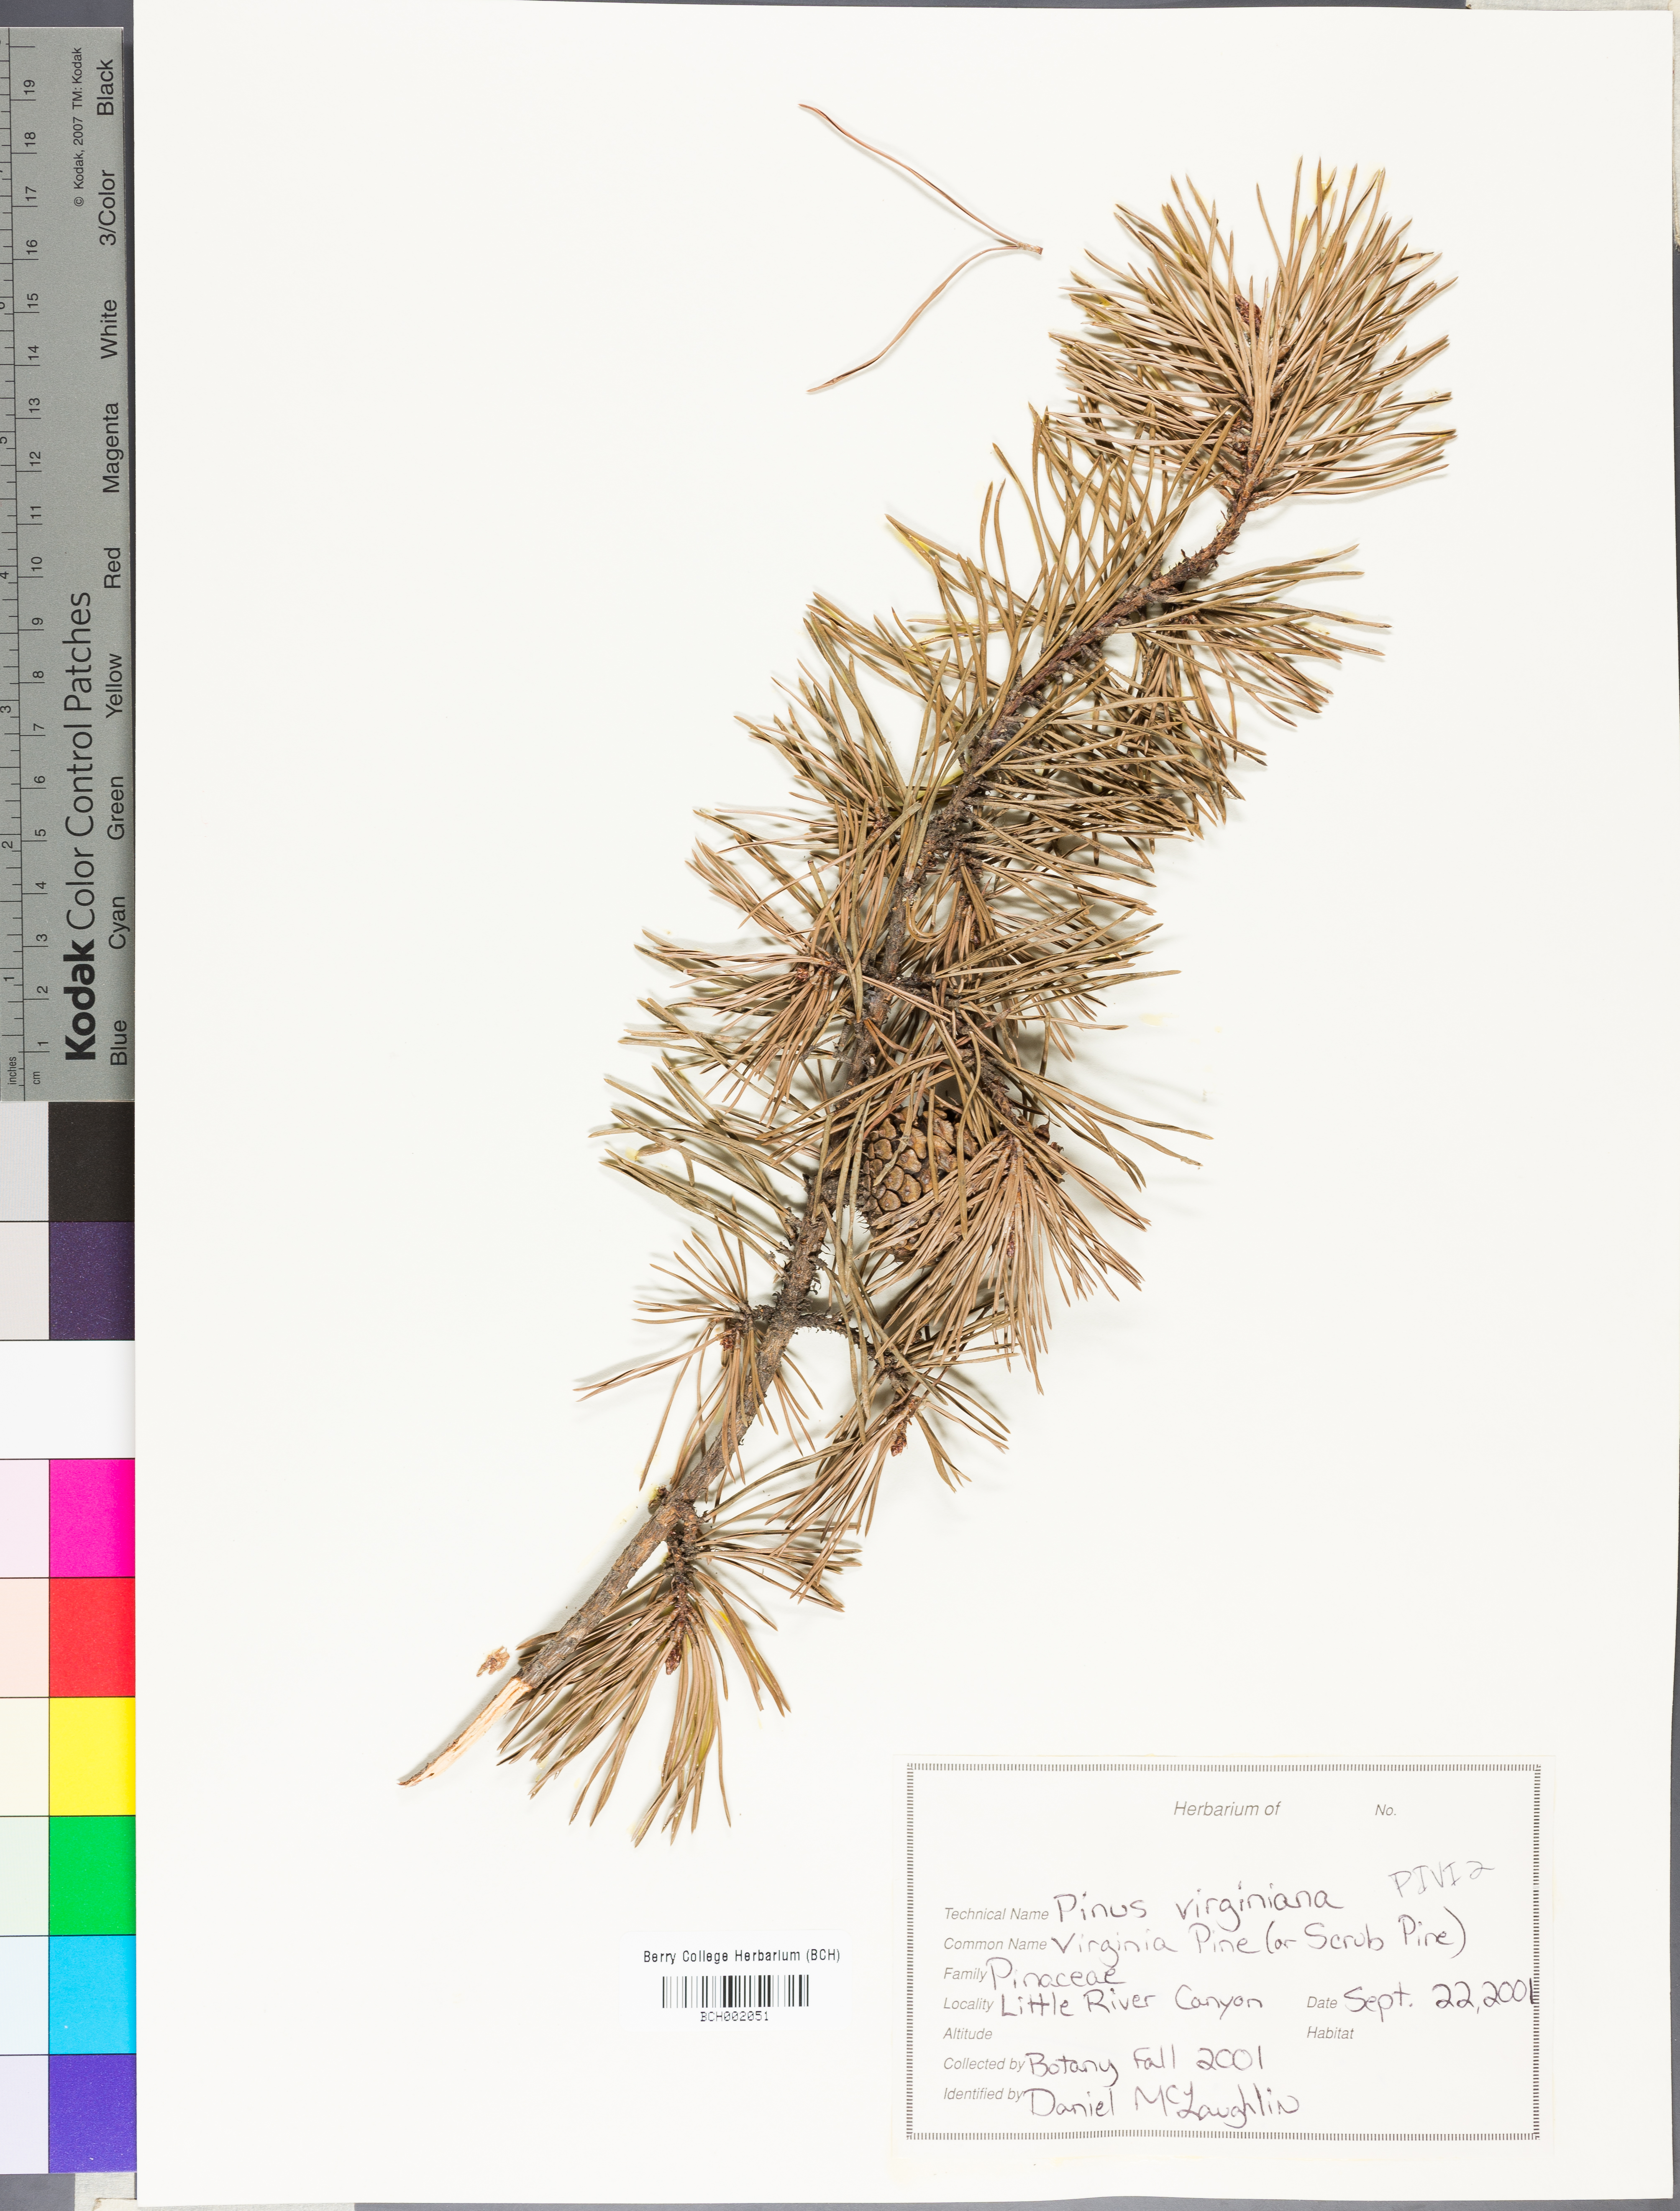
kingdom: Plantae
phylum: Tracheophyta
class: Pinopsida
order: Pinales
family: Pinaceae
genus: Pinus
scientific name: Pinus virginiana
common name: Scrub pine
